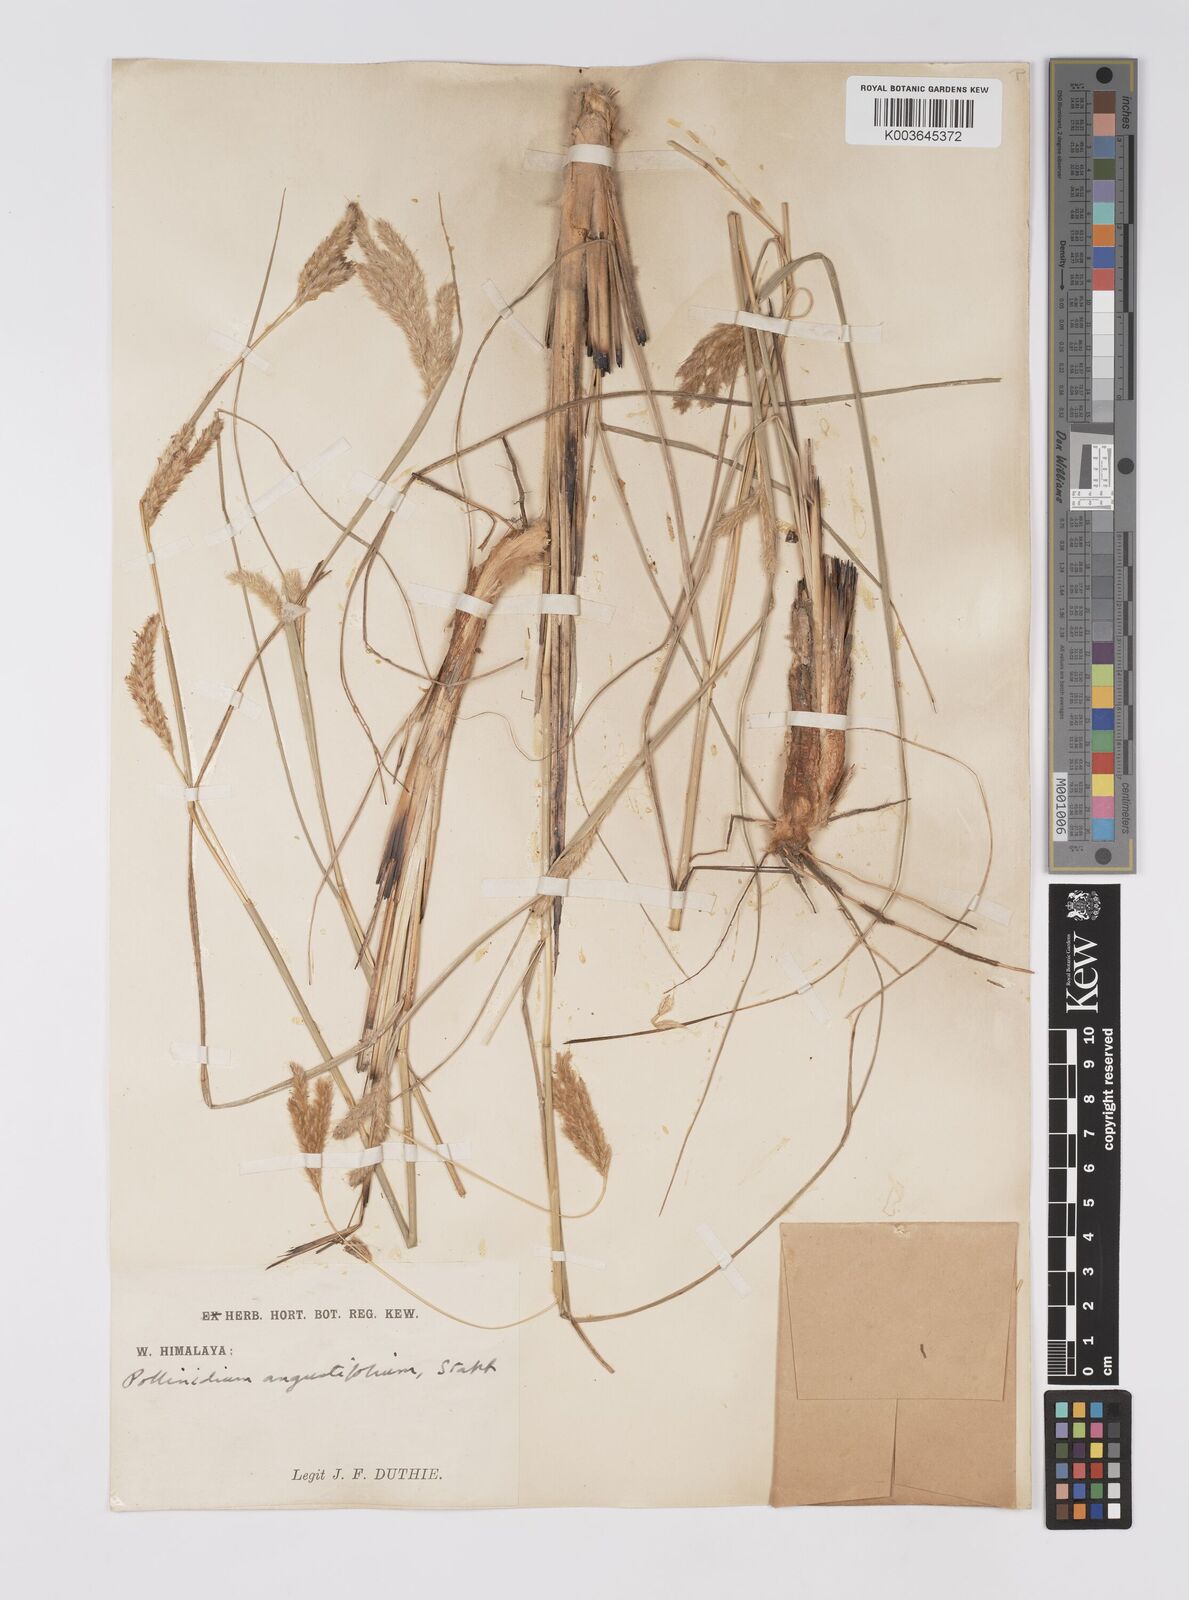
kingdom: Plantae
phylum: Tracheophyta
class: Liliopsida
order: Poales
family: Poaceae
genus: Eulaliopsis
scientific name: Eulaliopsis binata
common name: Baib grass
